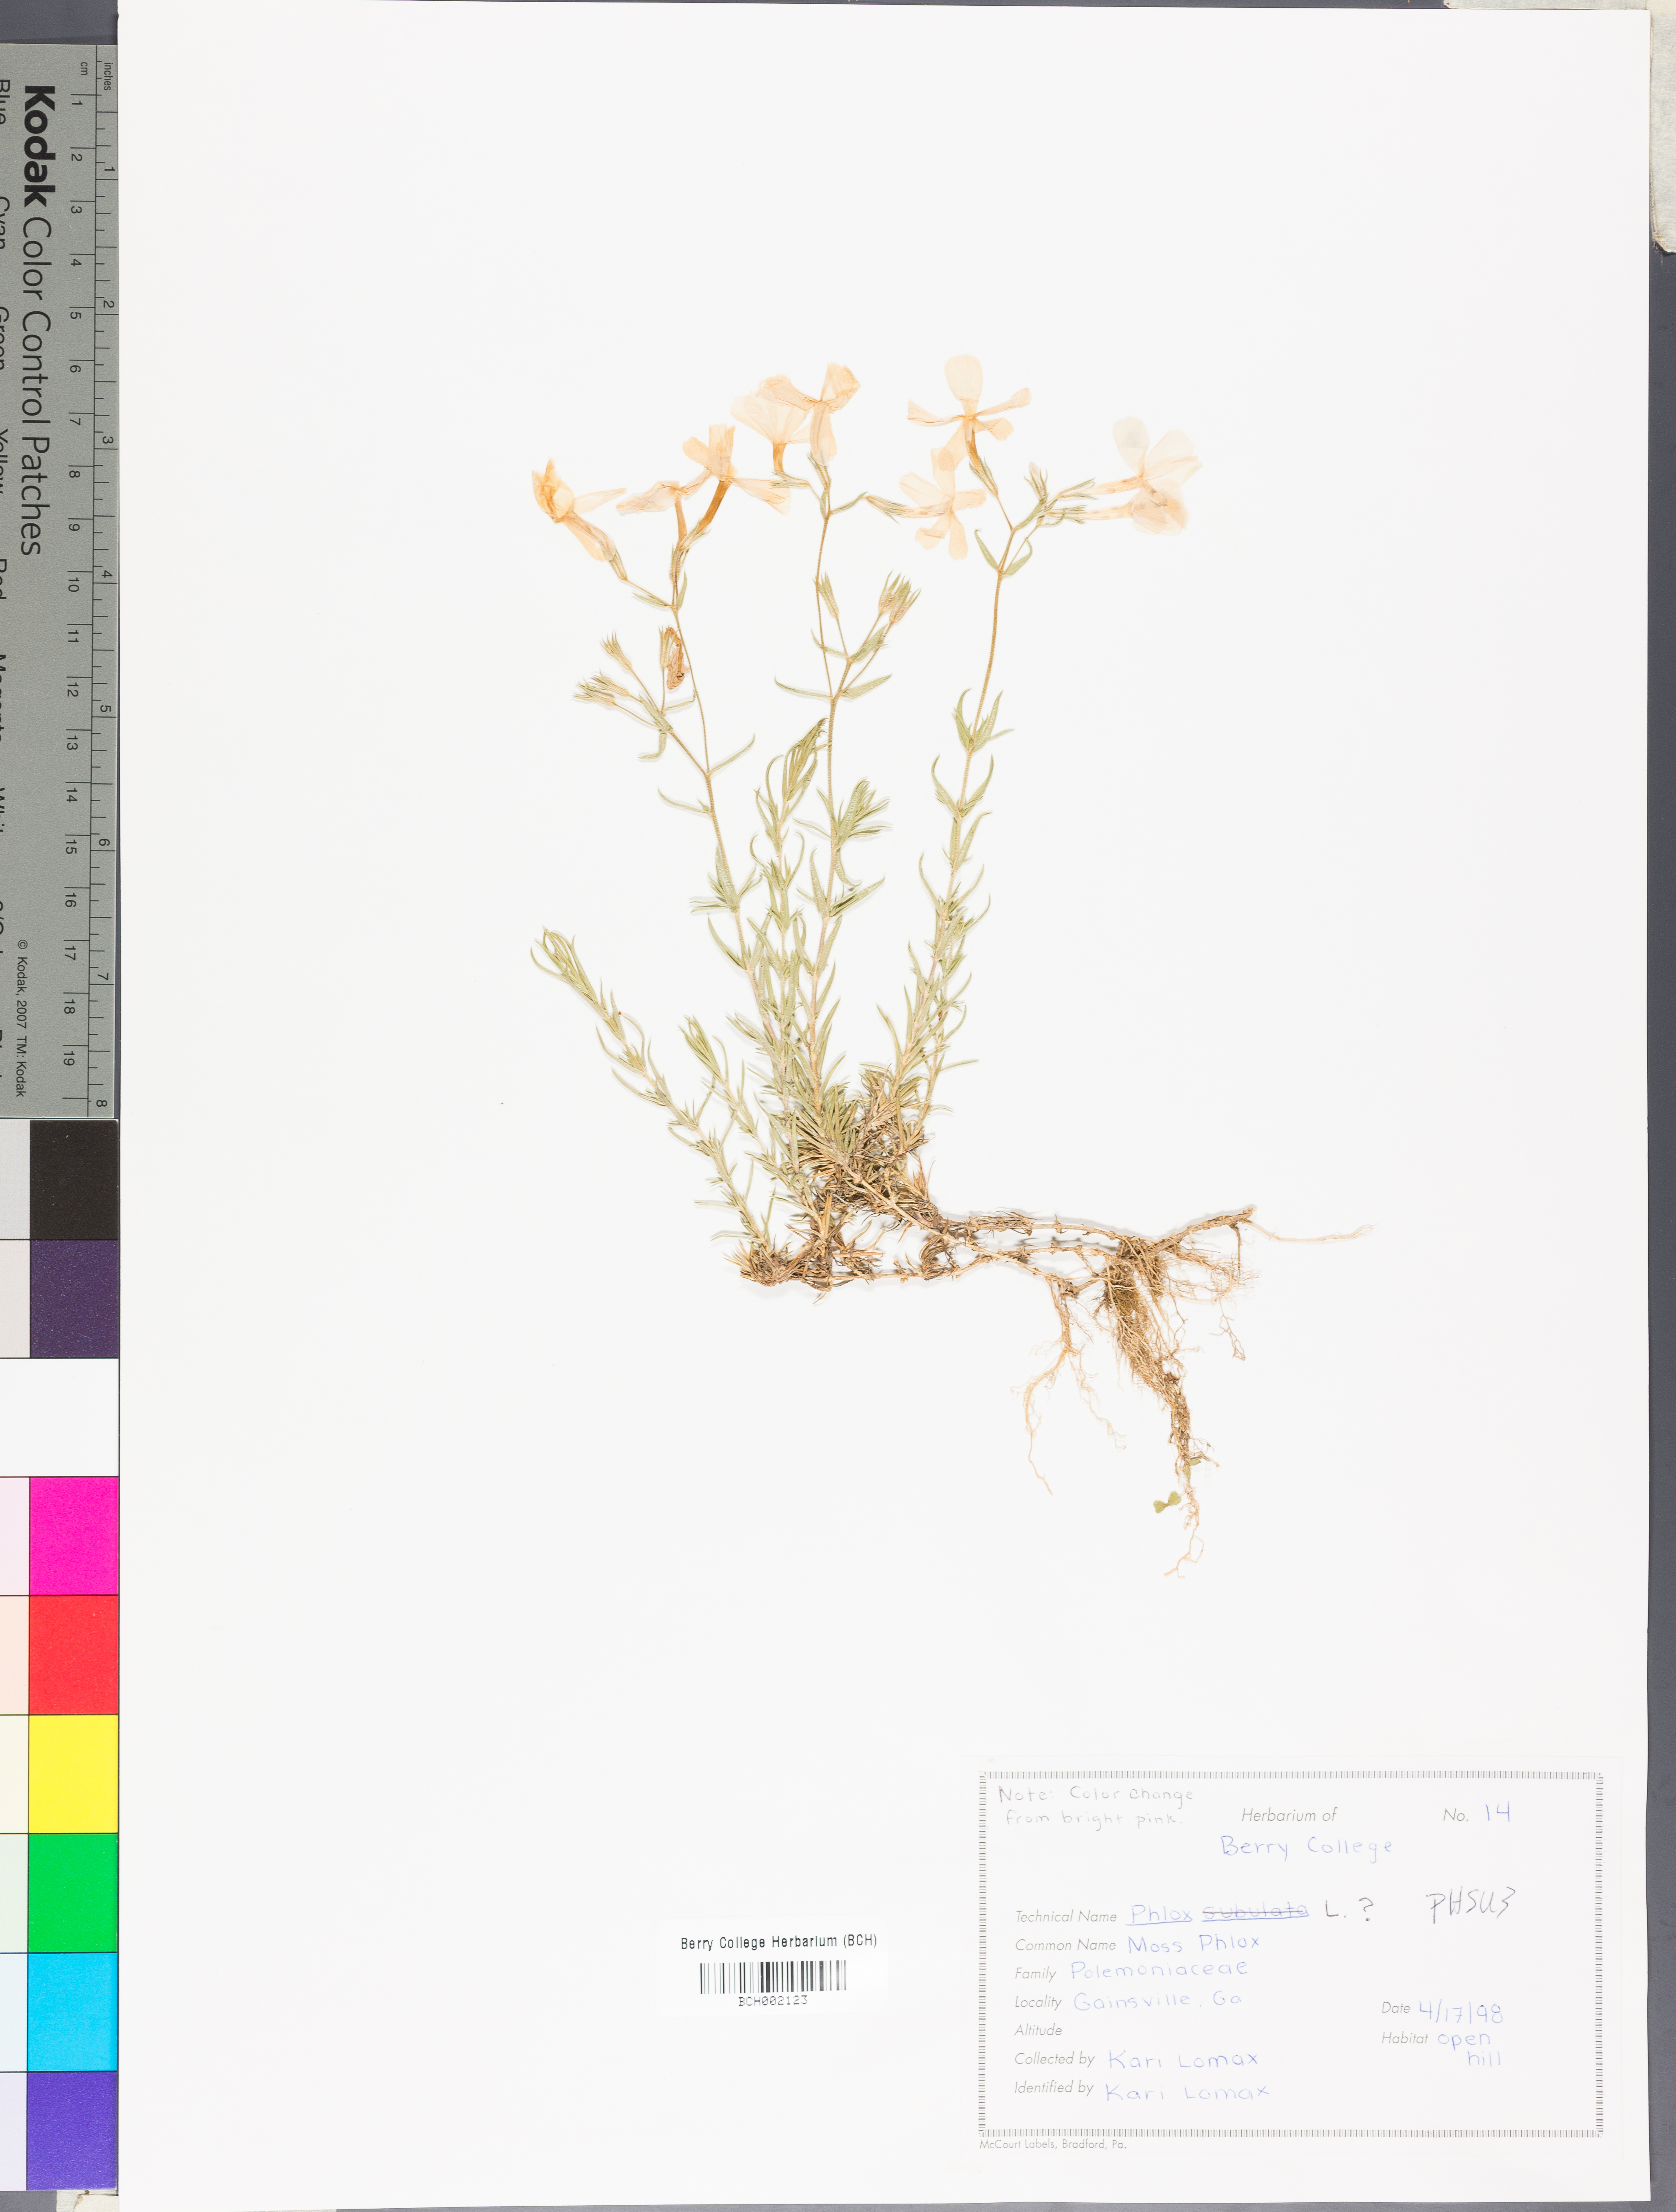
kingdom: Plantae
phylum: Tracheophyta
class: Magnoliopsida
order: Ericales
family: Polemoniaceae
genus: Phlox
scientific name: Phlox subulata
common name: Moss phlox
